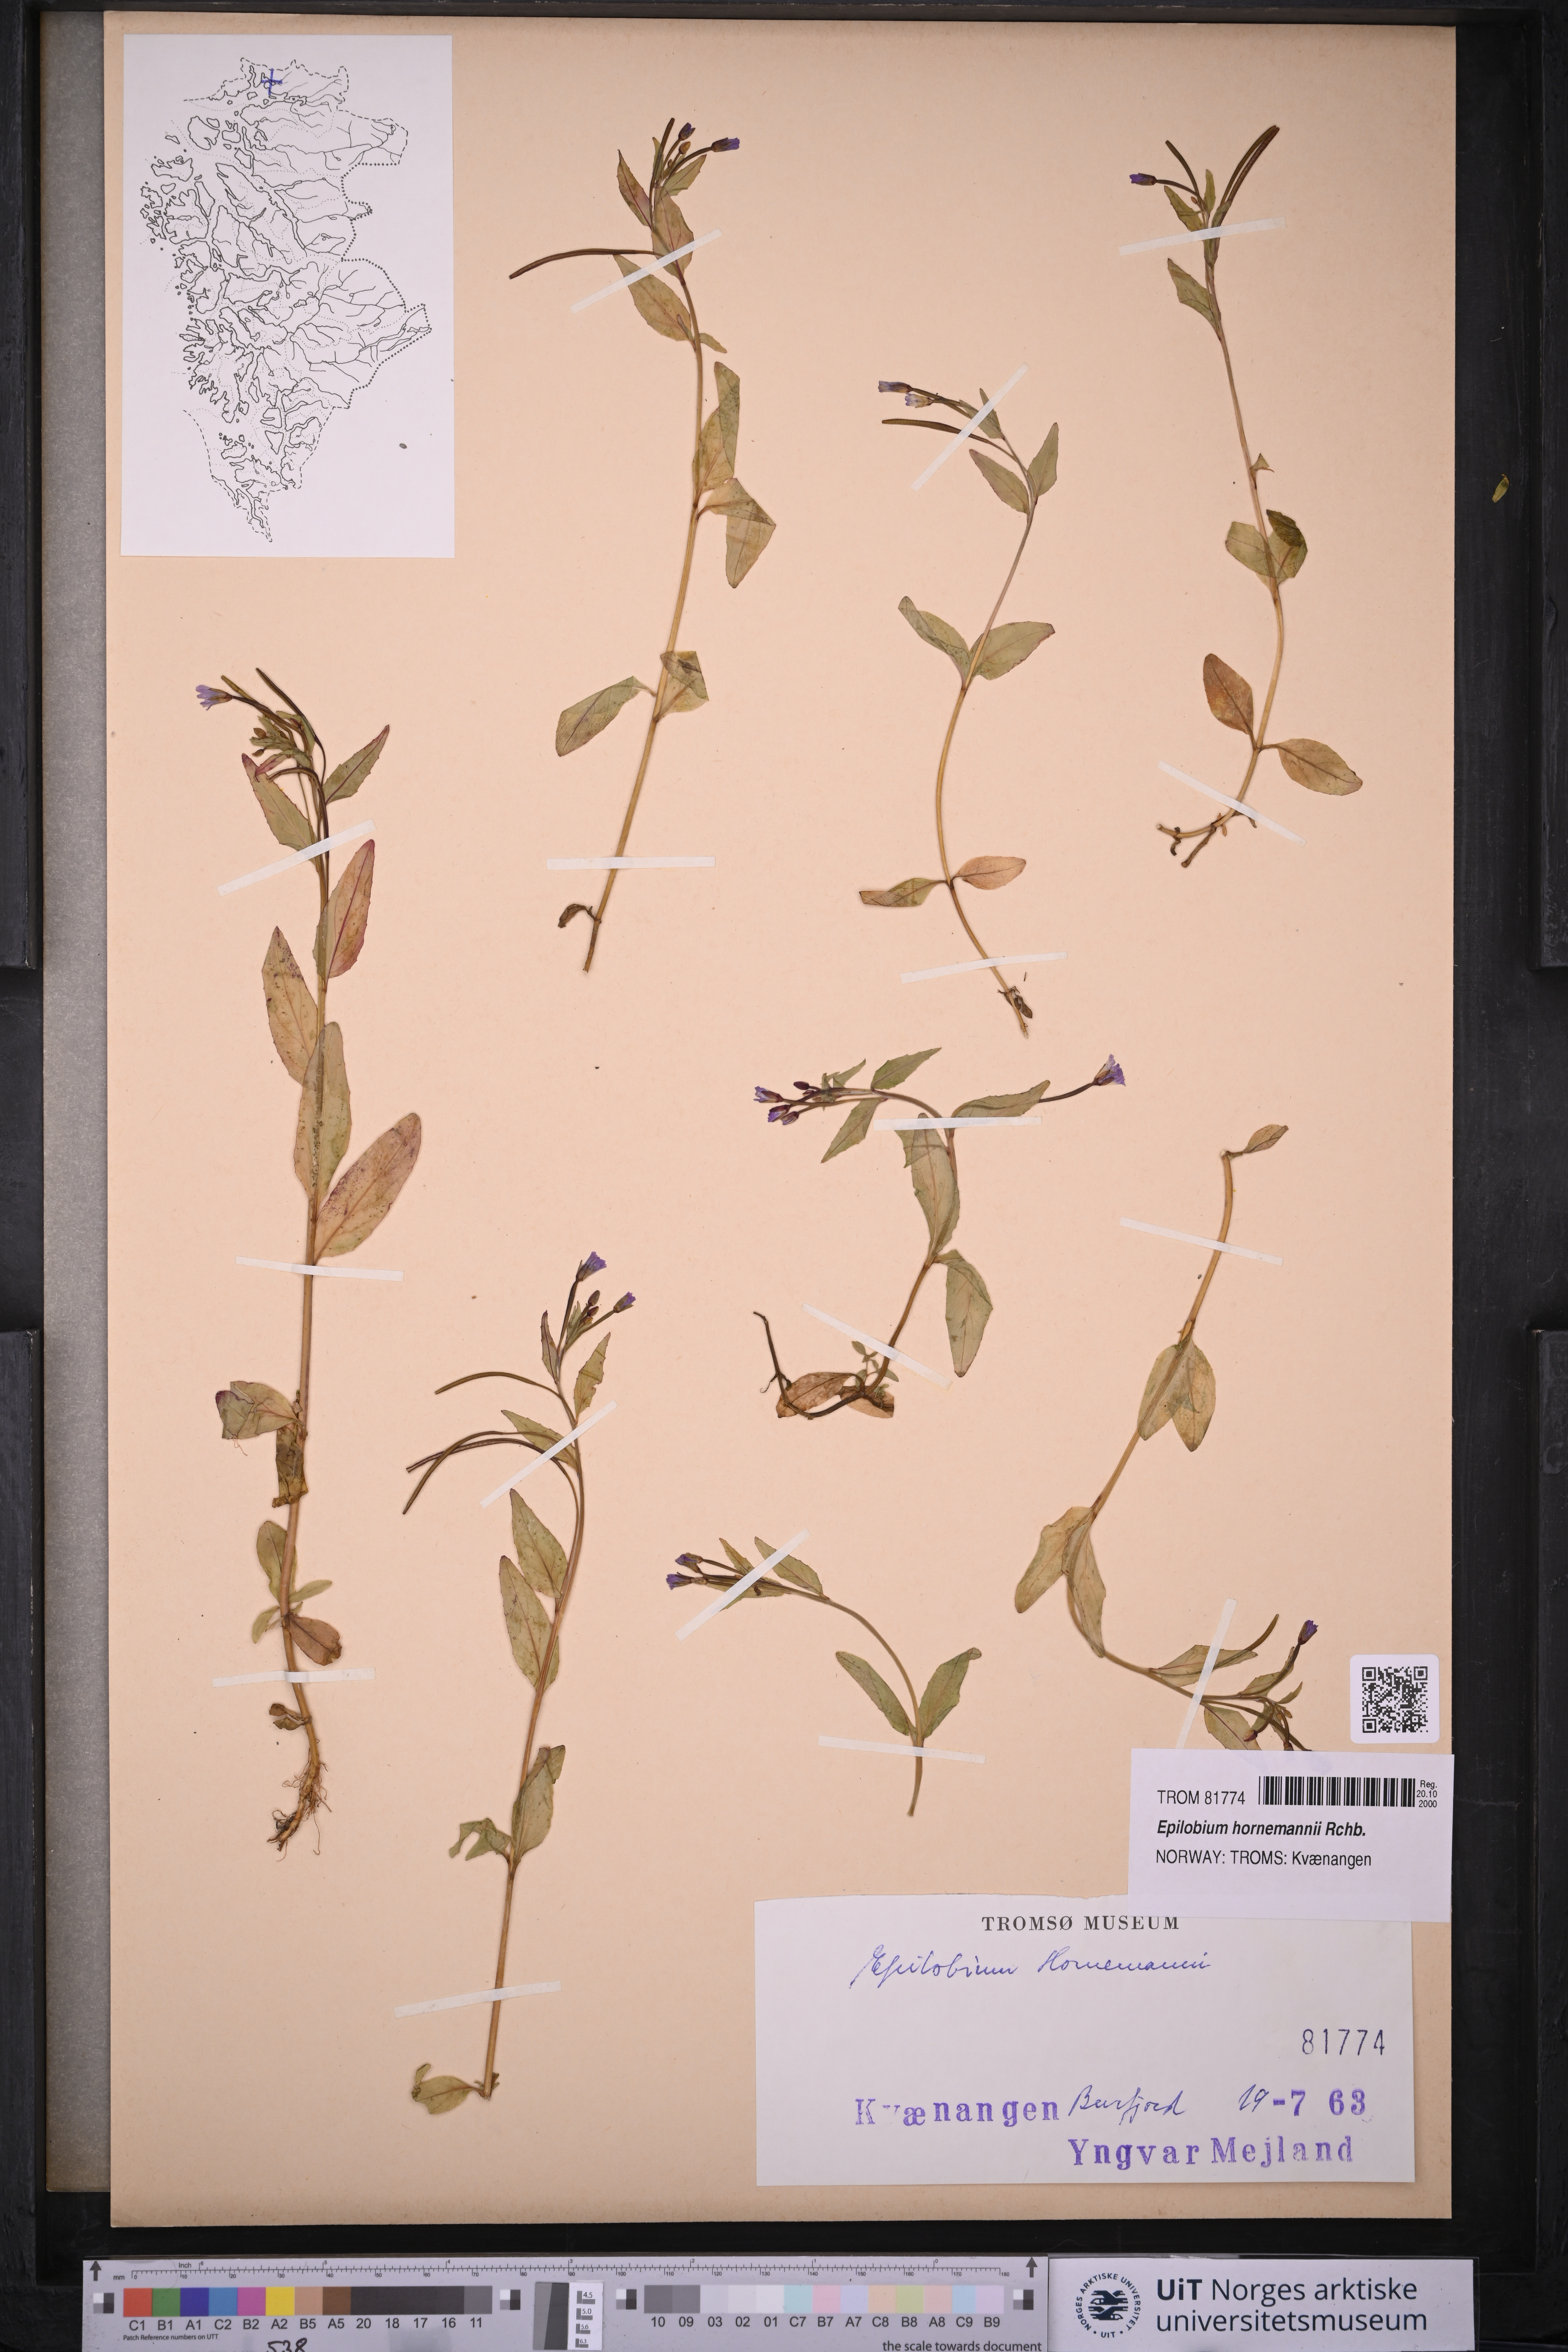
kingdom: Plantae
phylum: Tracheophyta
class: Magnoliopsida
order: Myrtales
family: Onagraceae
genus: Epilobium
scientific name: Epilobium hornemannii
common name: Hornemann's willowherb
